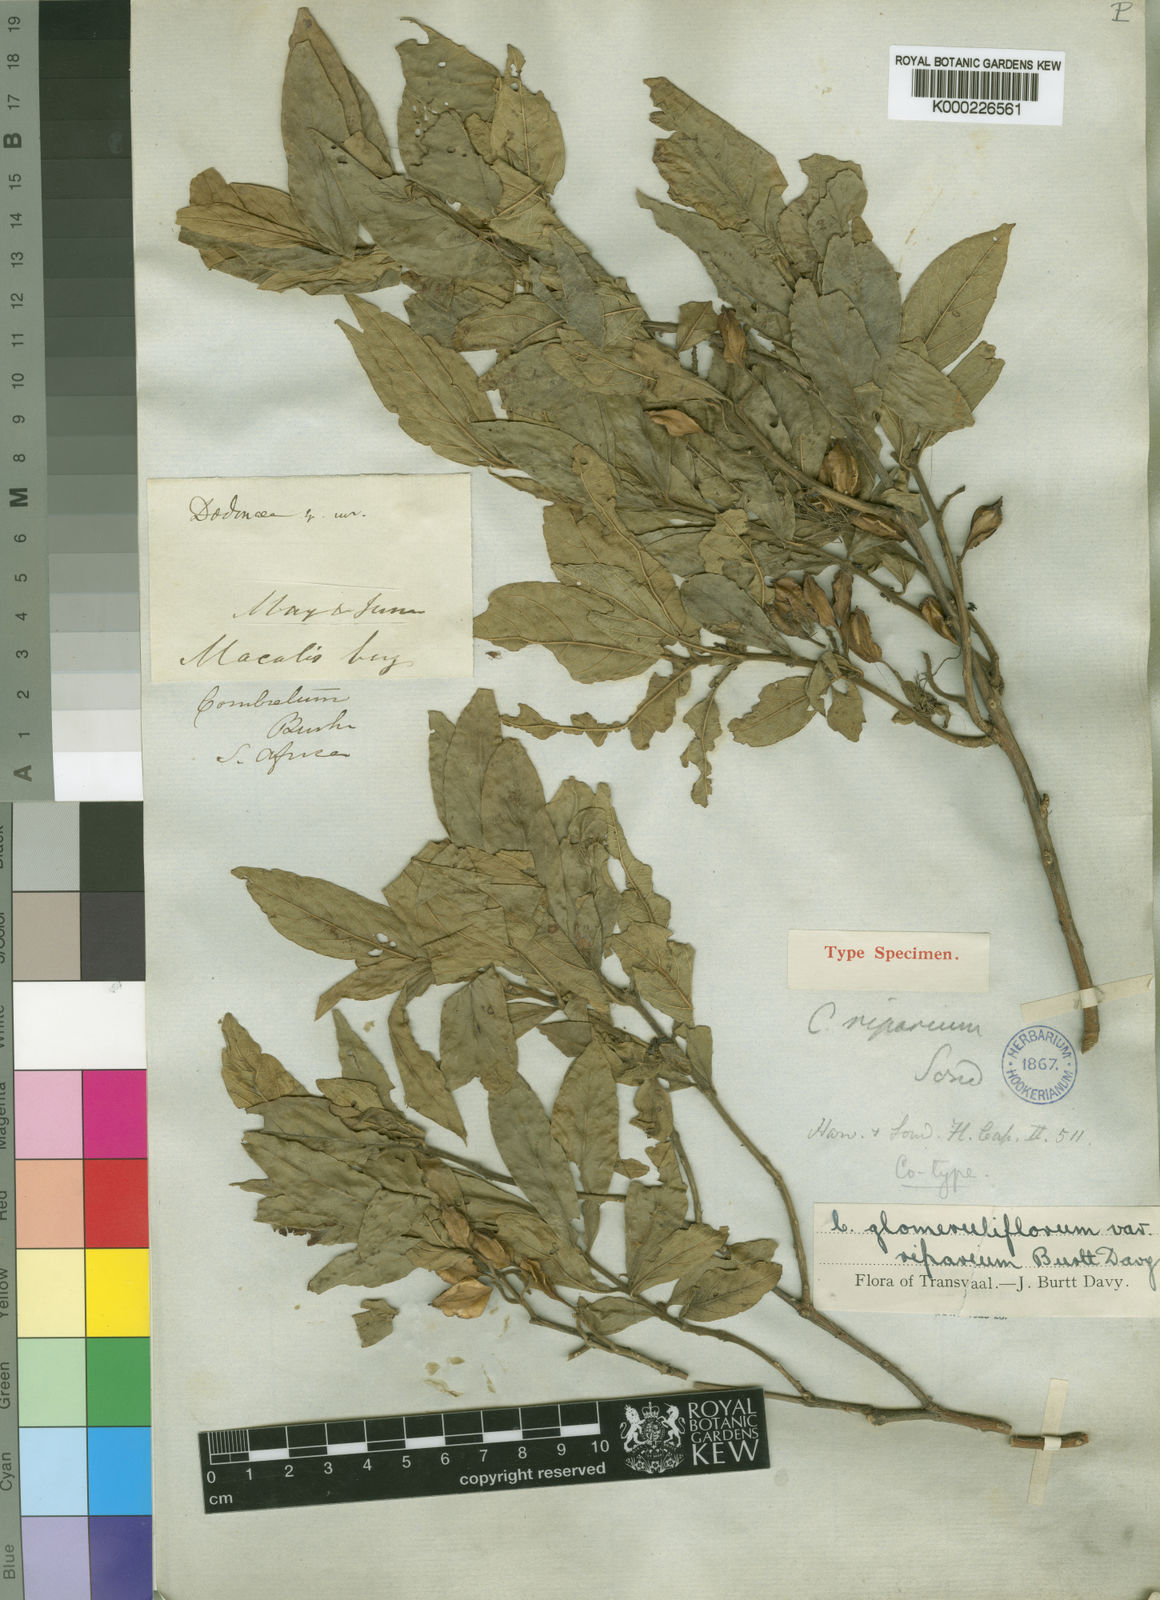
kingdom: Plantae
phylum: Tracheophyta
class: Magnoliopsida
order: Myrtales
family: Combretaceae
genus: Combretum
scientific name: Combretum erythrophyllum
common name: Bush-willow
